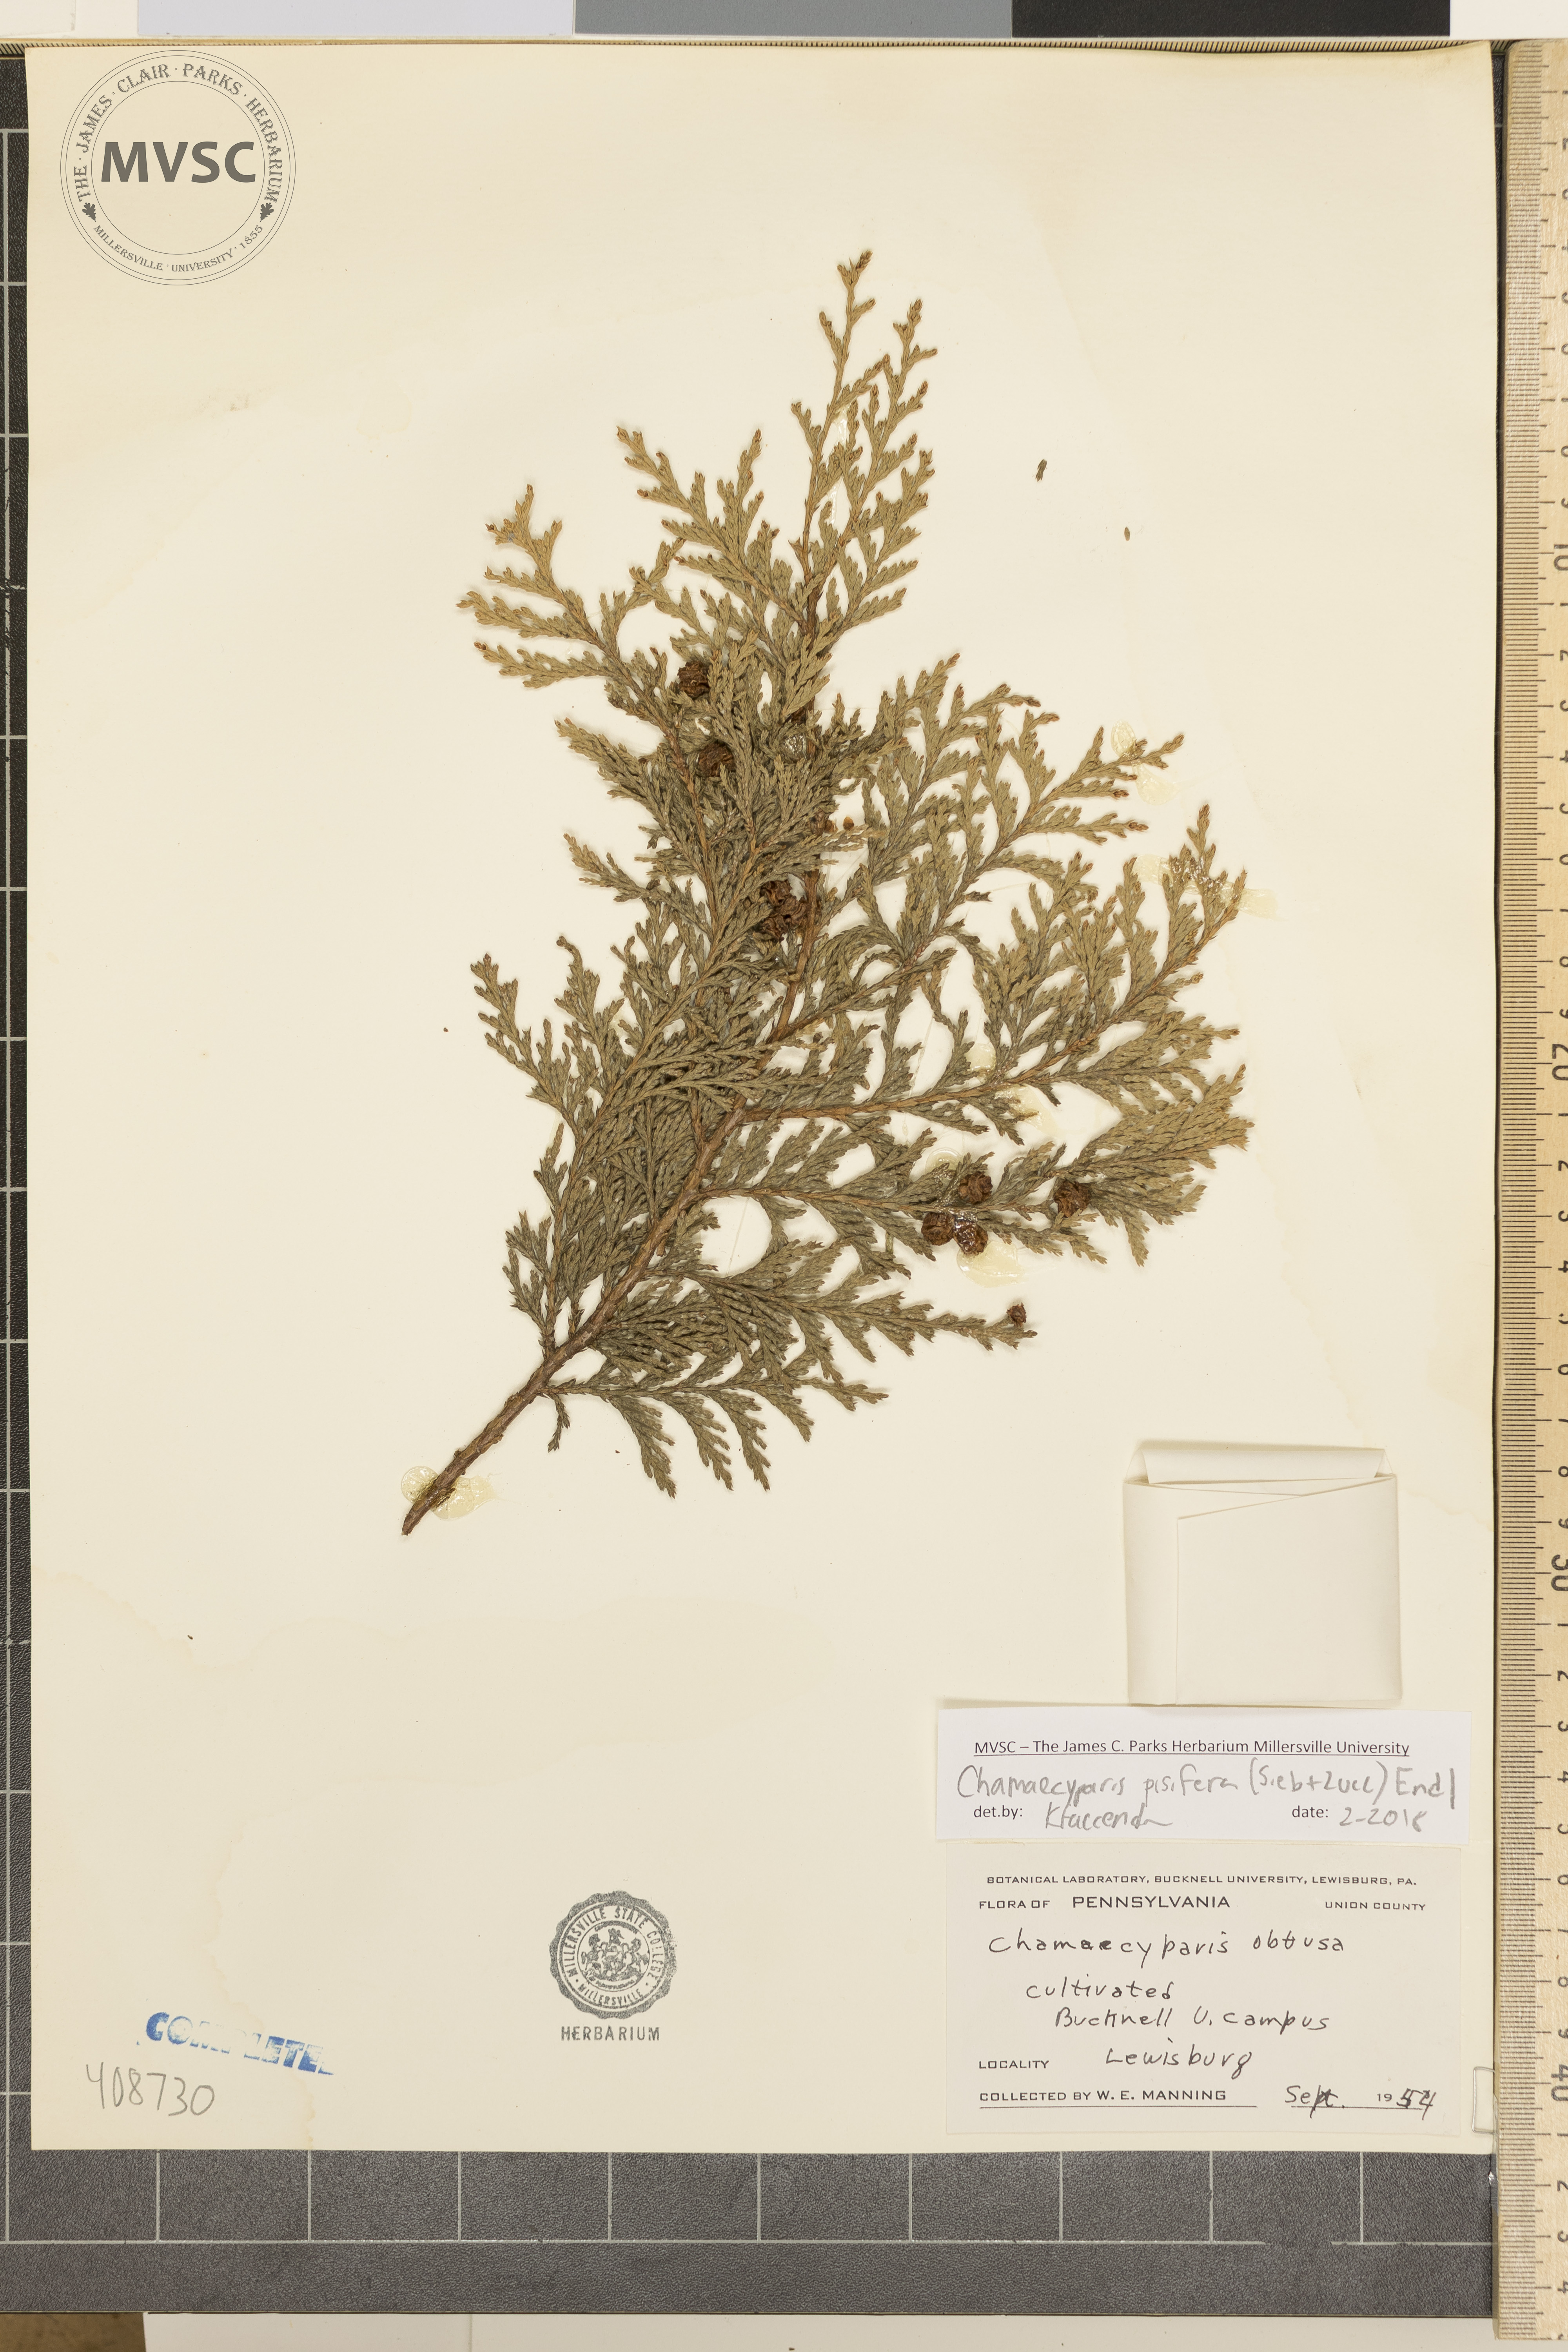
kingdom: Plantae
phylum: Tracheophyta
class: Pinopsida
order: Pinales
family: Cupressaceae
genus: Chamaecyparis
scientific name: Chamaecyparis pisifera
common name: Sawara cypress
